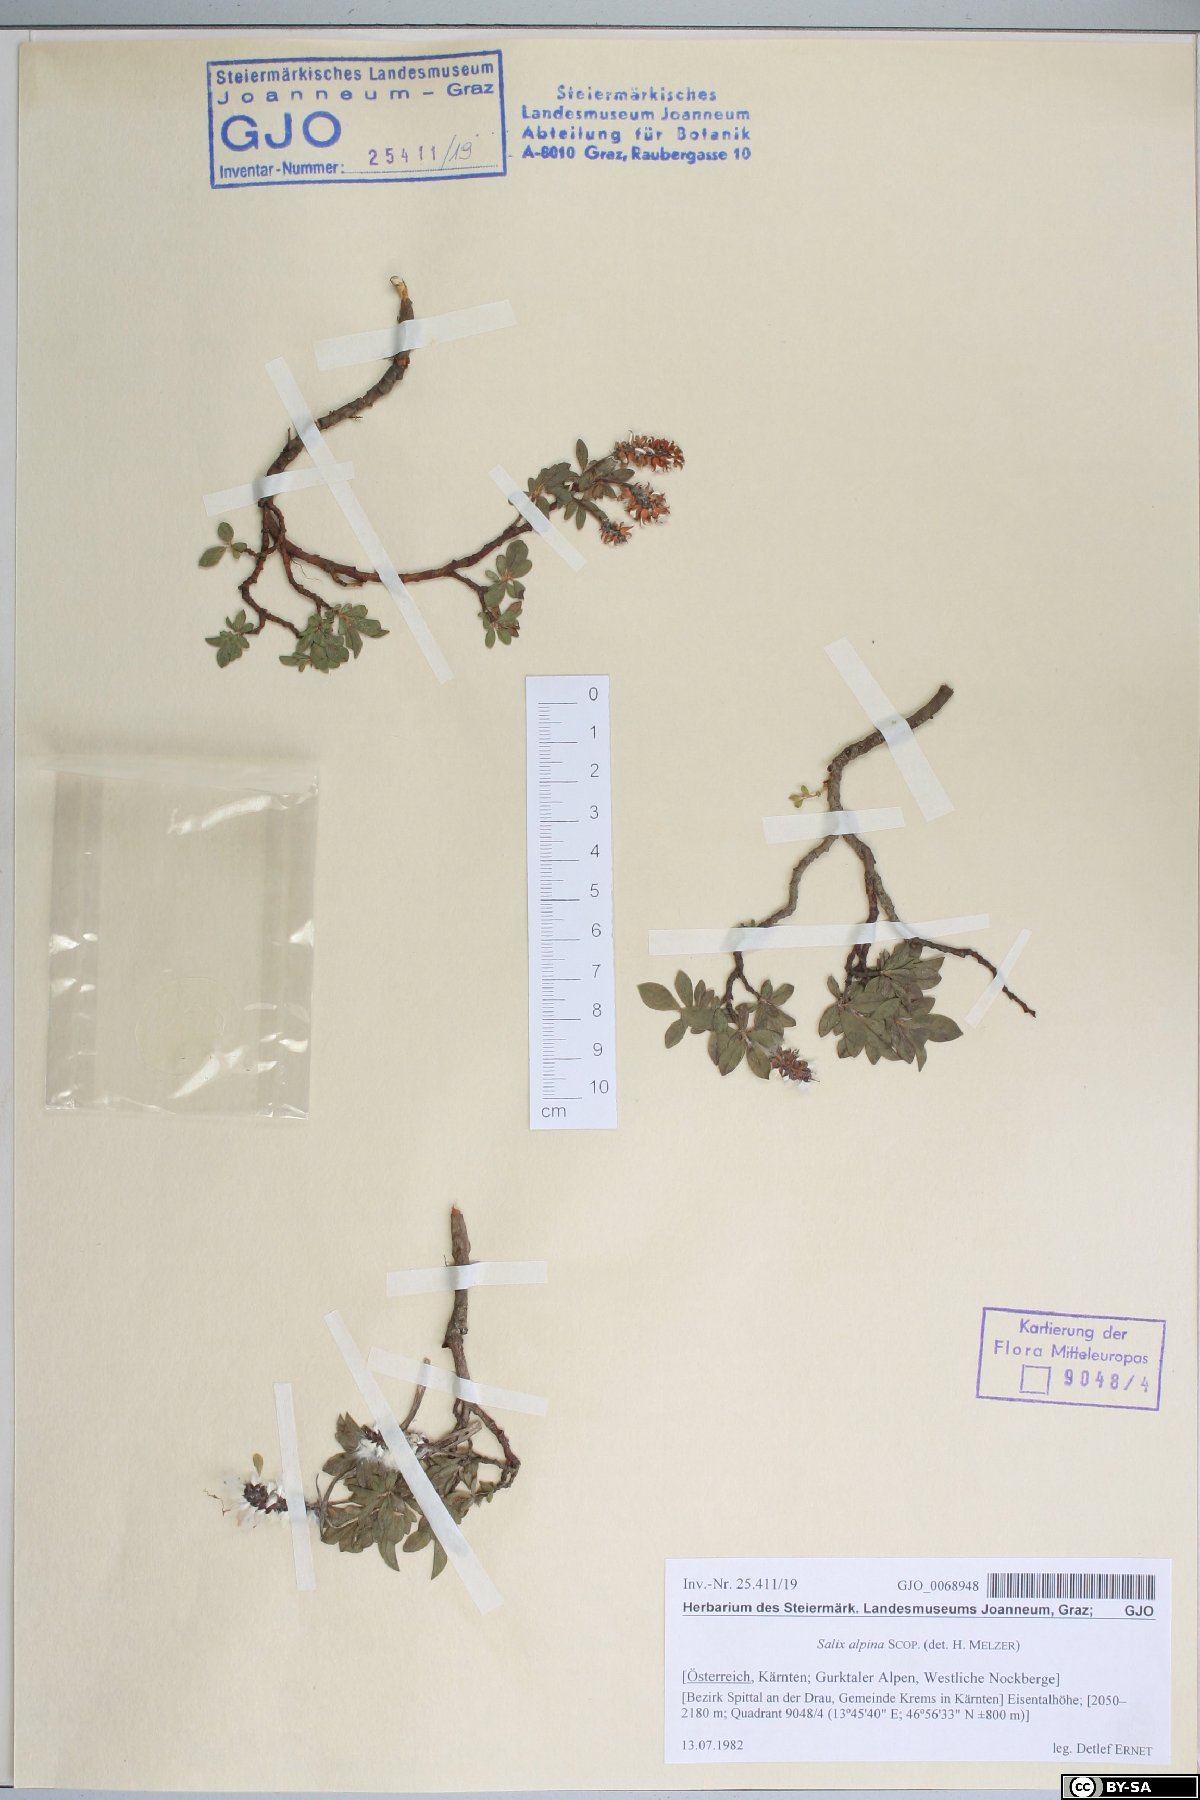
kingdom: Plantae
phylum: Tracheophyta
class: Magnoliopsida
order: Malpighiales
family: Salicaceae
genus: Salix
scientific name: Salix alpina
